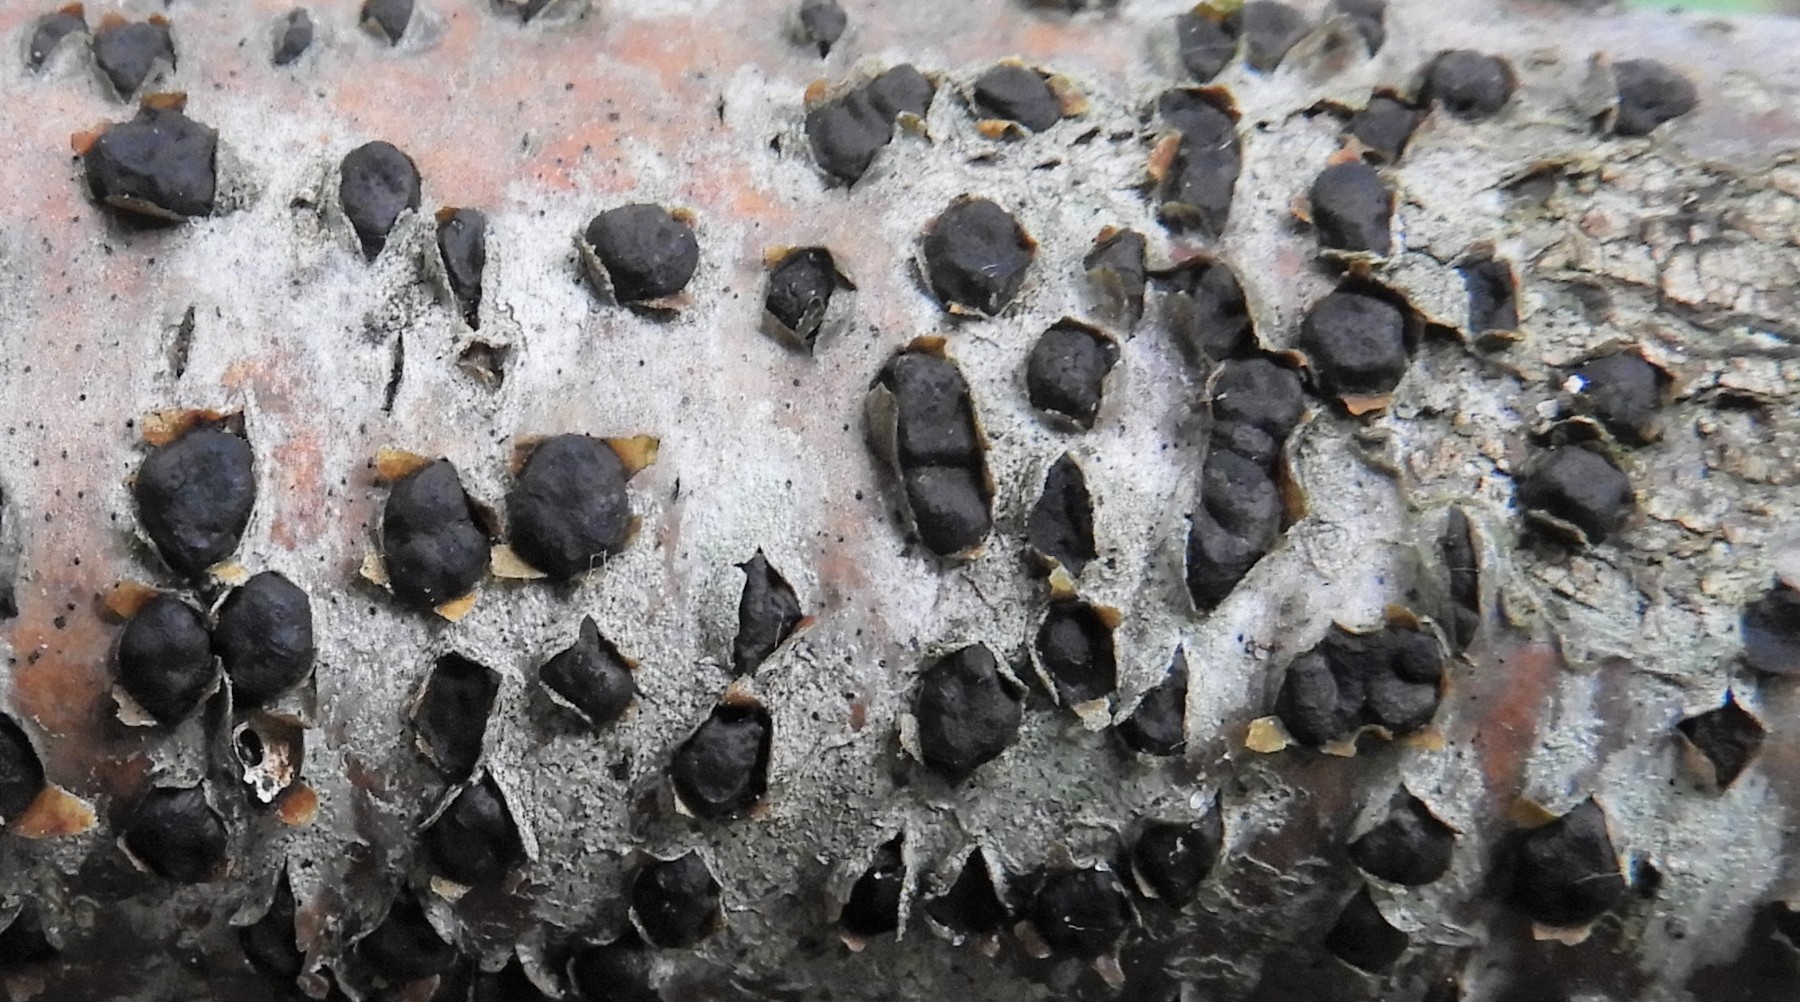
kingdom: Fungi
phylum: Ascomycota
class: Sordariomycetes
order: Xylariales
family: Diatrypaceae
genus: Diatrype
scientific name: Diatrype disciformis
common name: kant-kulskorpe
